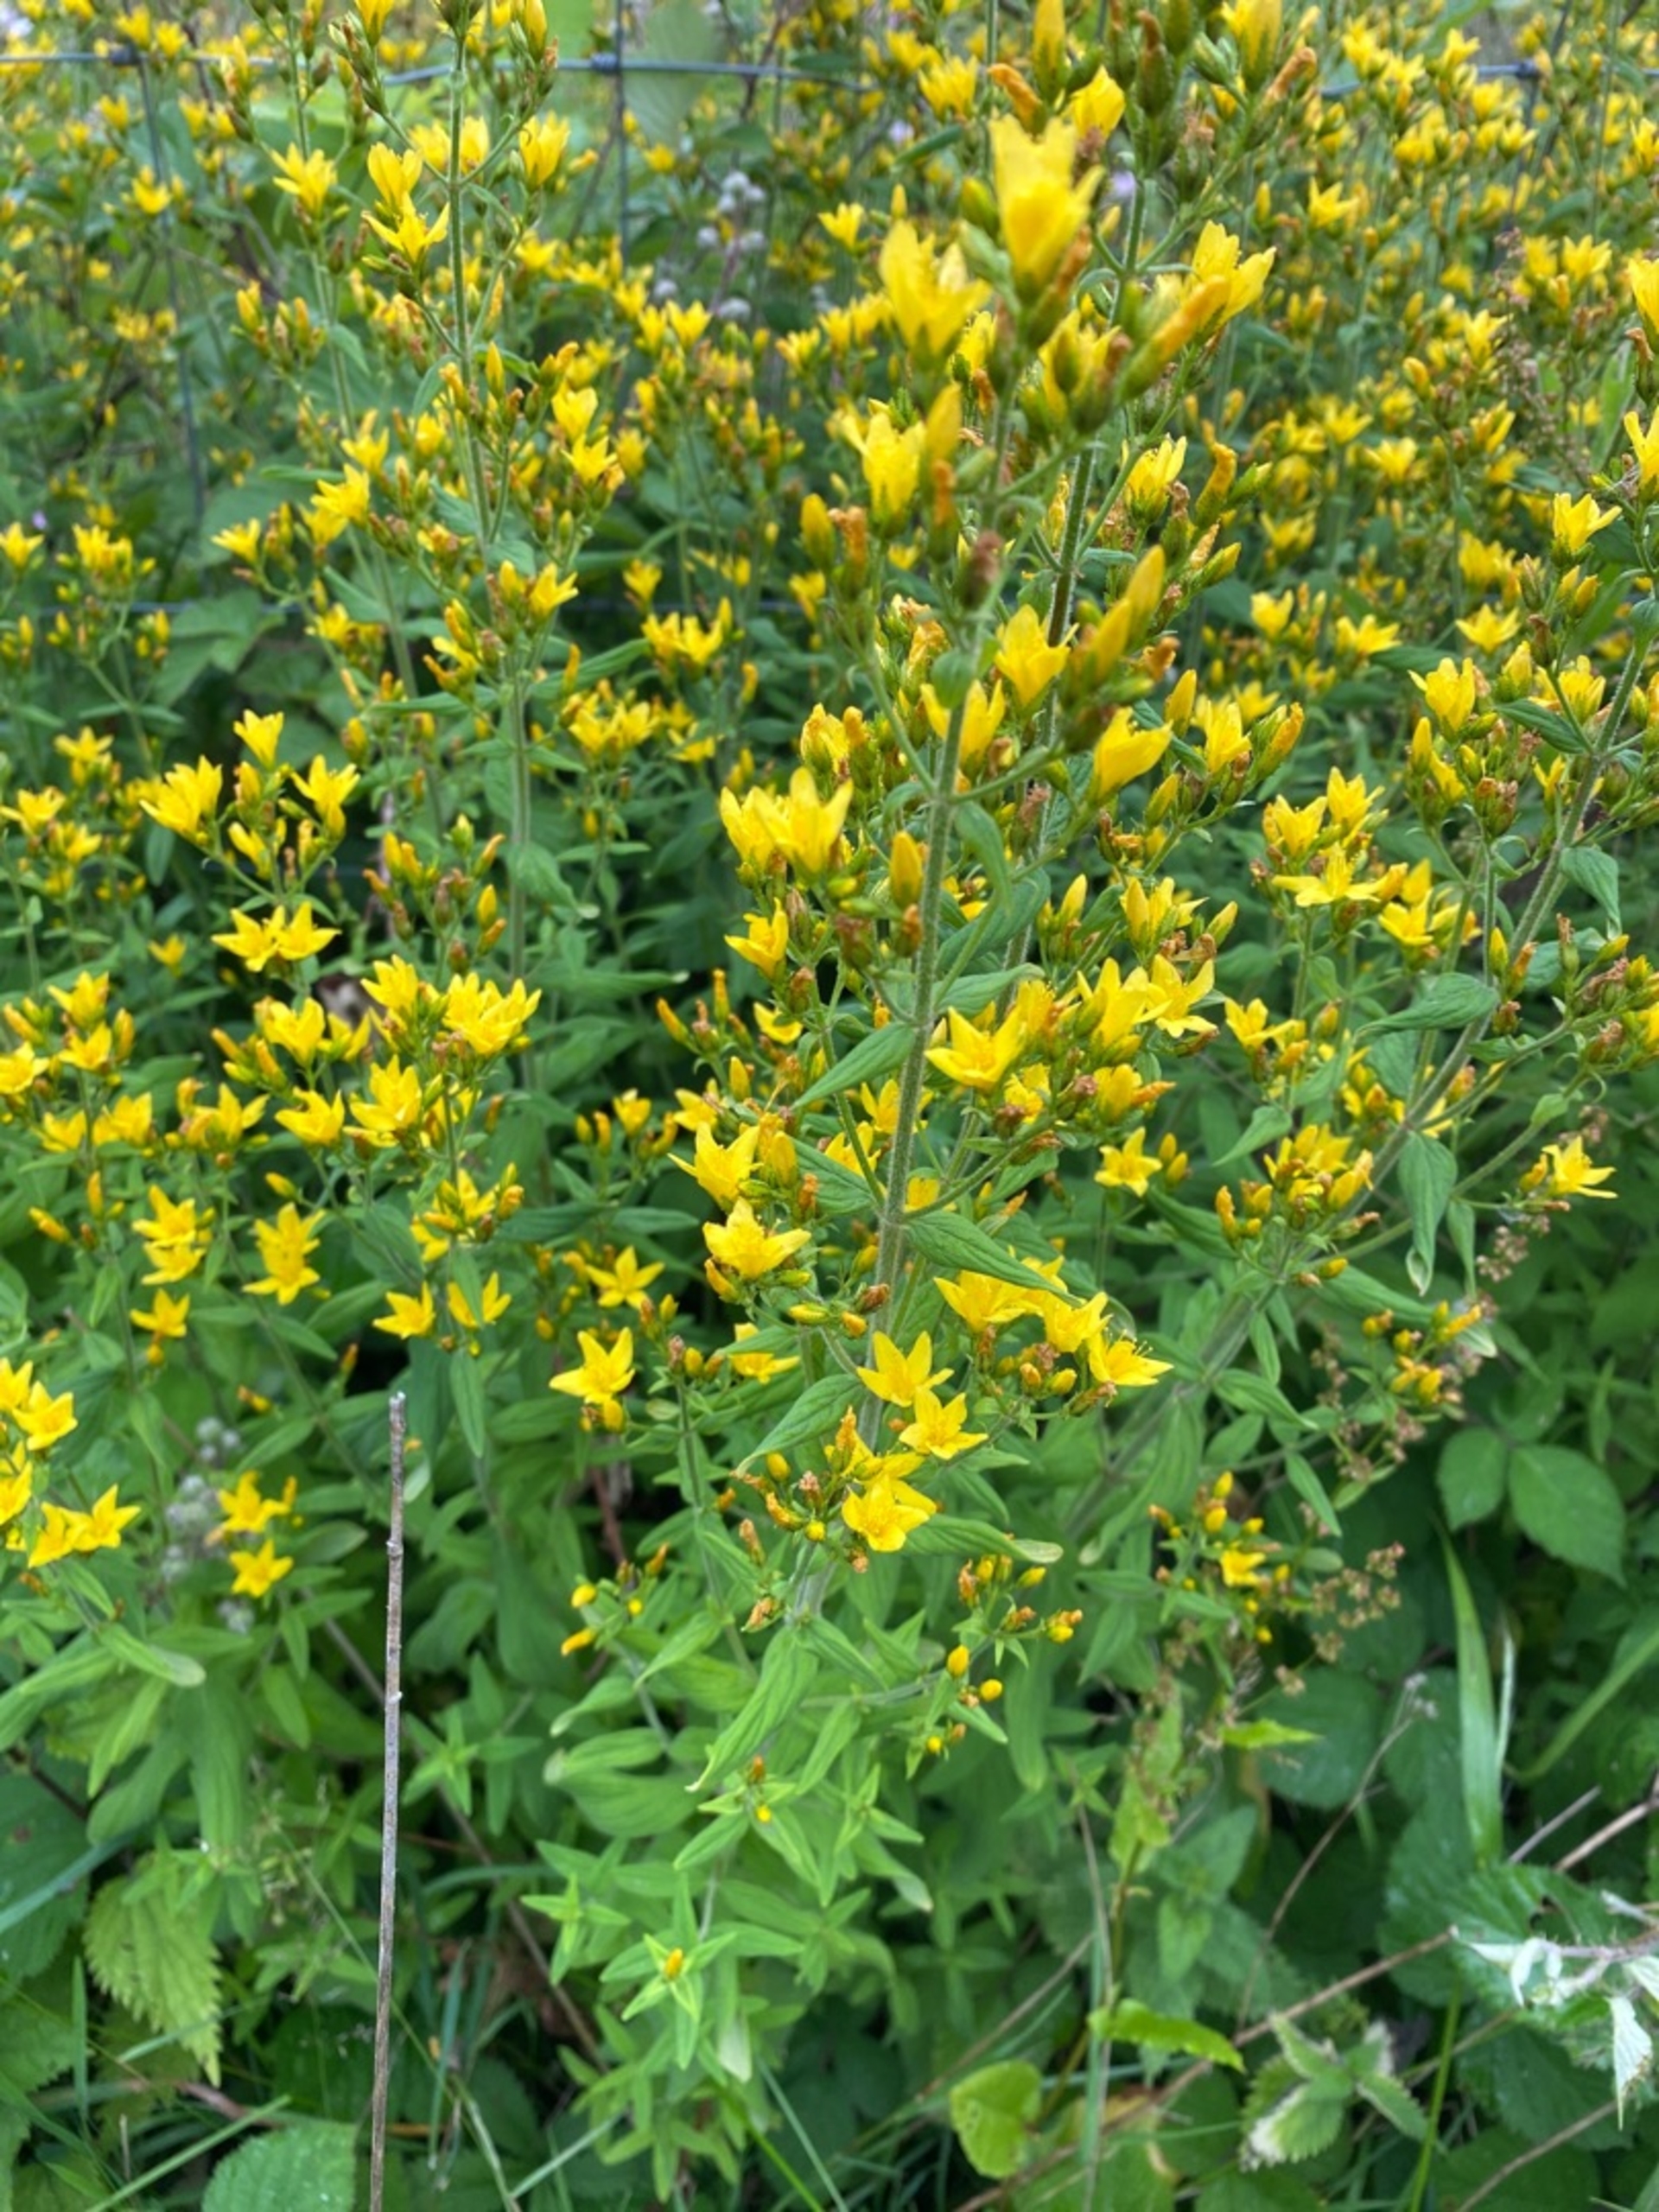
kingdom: Plantae
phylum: Tracheophyta
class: Magnoliopsida
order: Malpighiales
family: Hypericaceae
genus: Hypericum
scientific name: Hypericum hirsutum
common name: Lådden perikon
